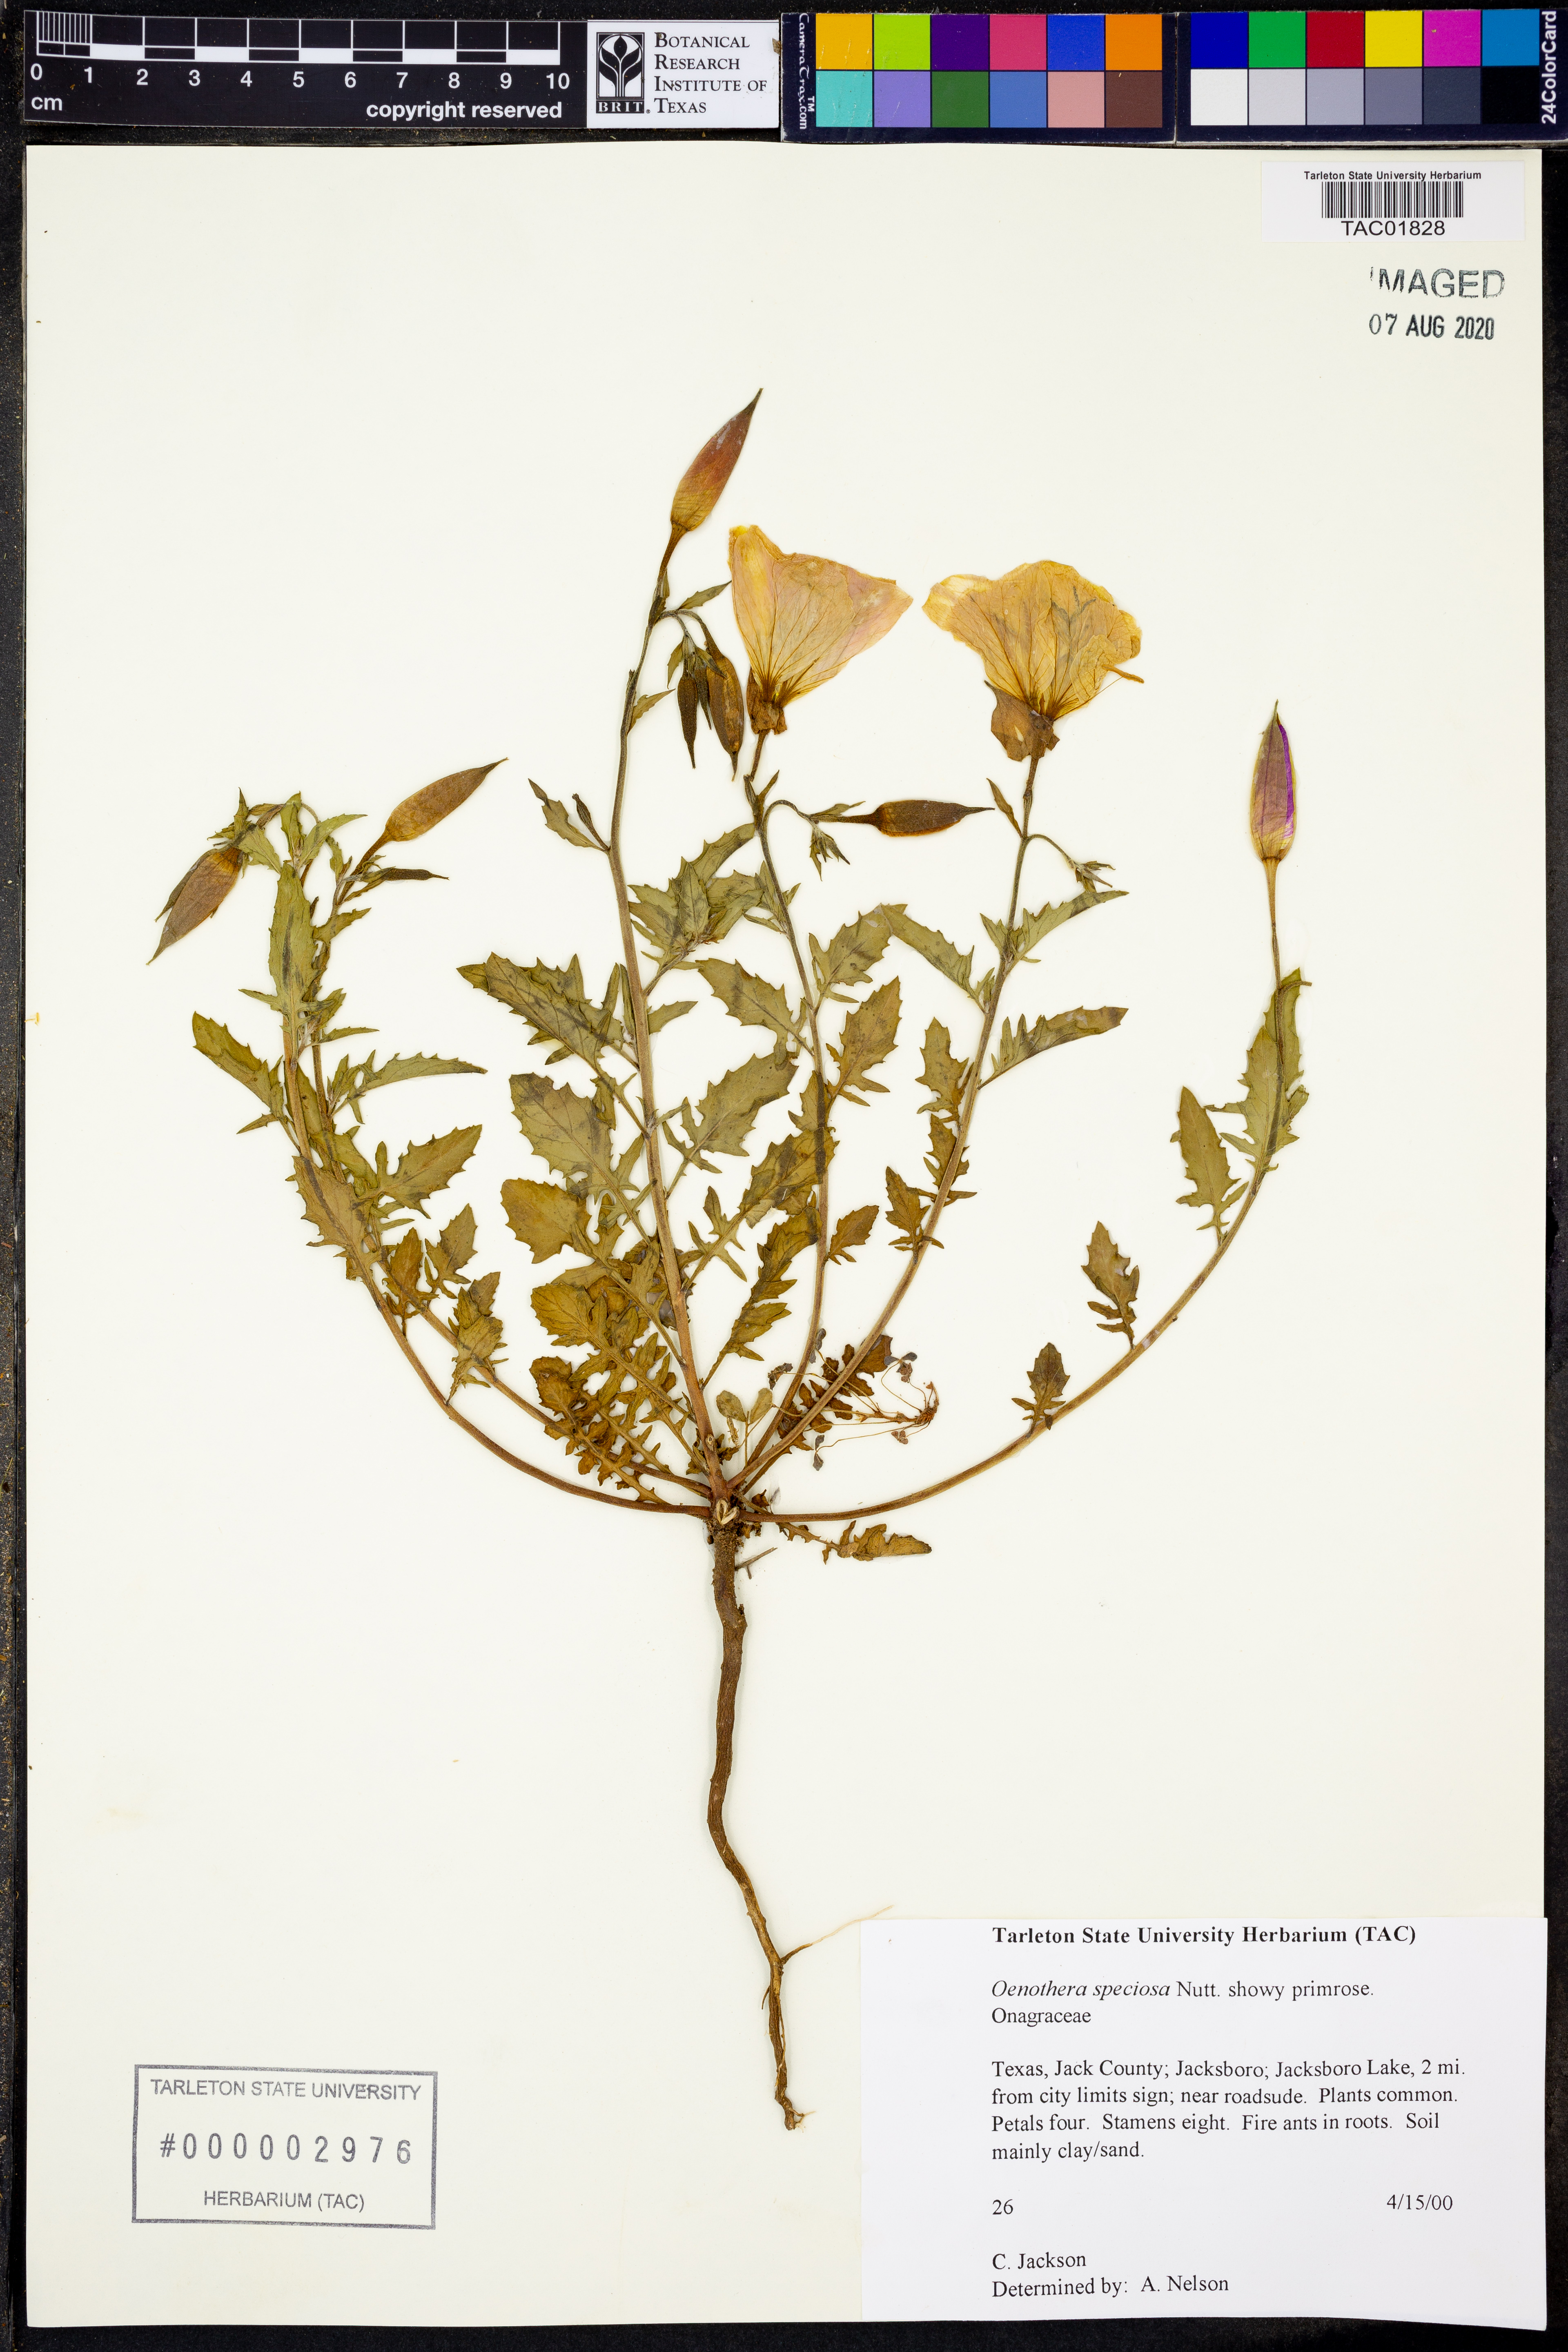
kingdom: Plantae
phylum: Tracheophyta
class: Magnoliopsida
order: Myrtales
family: Onagraceae
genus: Oenothera
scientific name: Oenothera speciosa
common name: White evening-primrose
